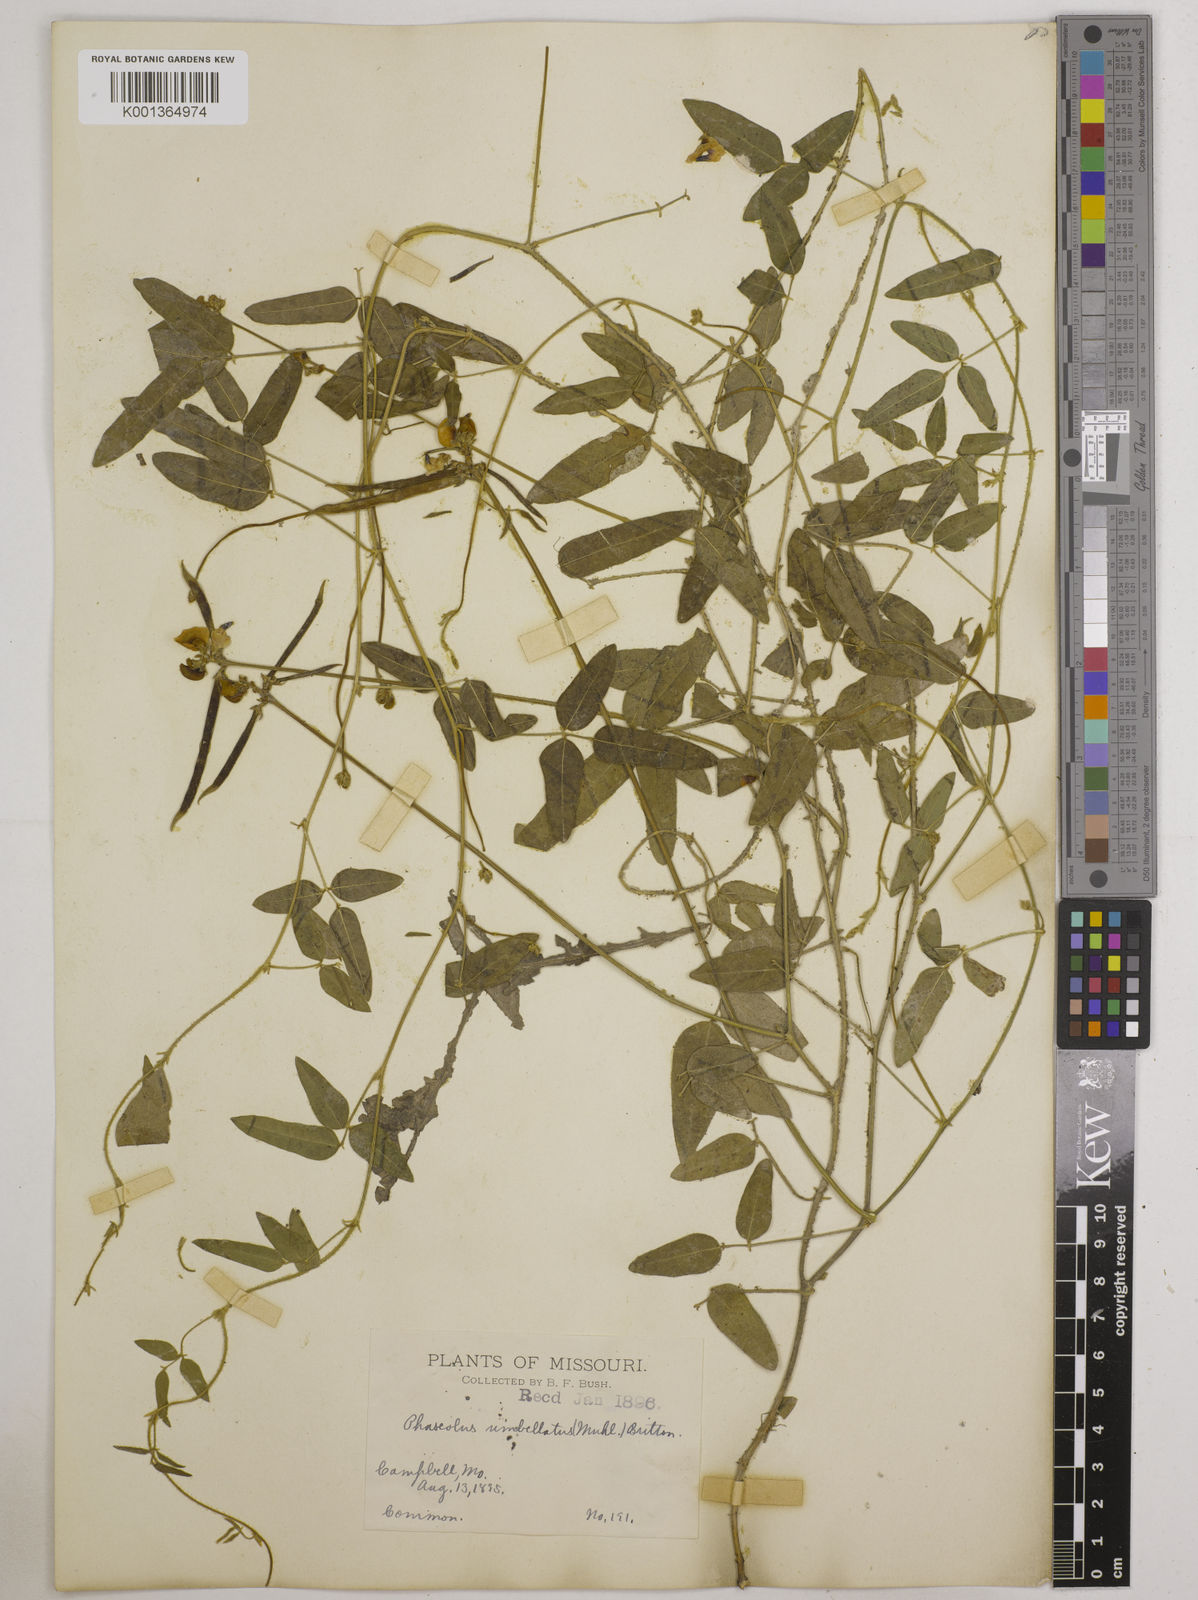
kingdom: Plantae
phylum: Tracheophyta
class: Magnoliopsida
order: Fabales
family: Fabaceae
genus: Strophostyles
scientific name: Strophostyles umbellata
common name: Perennial wild bean
